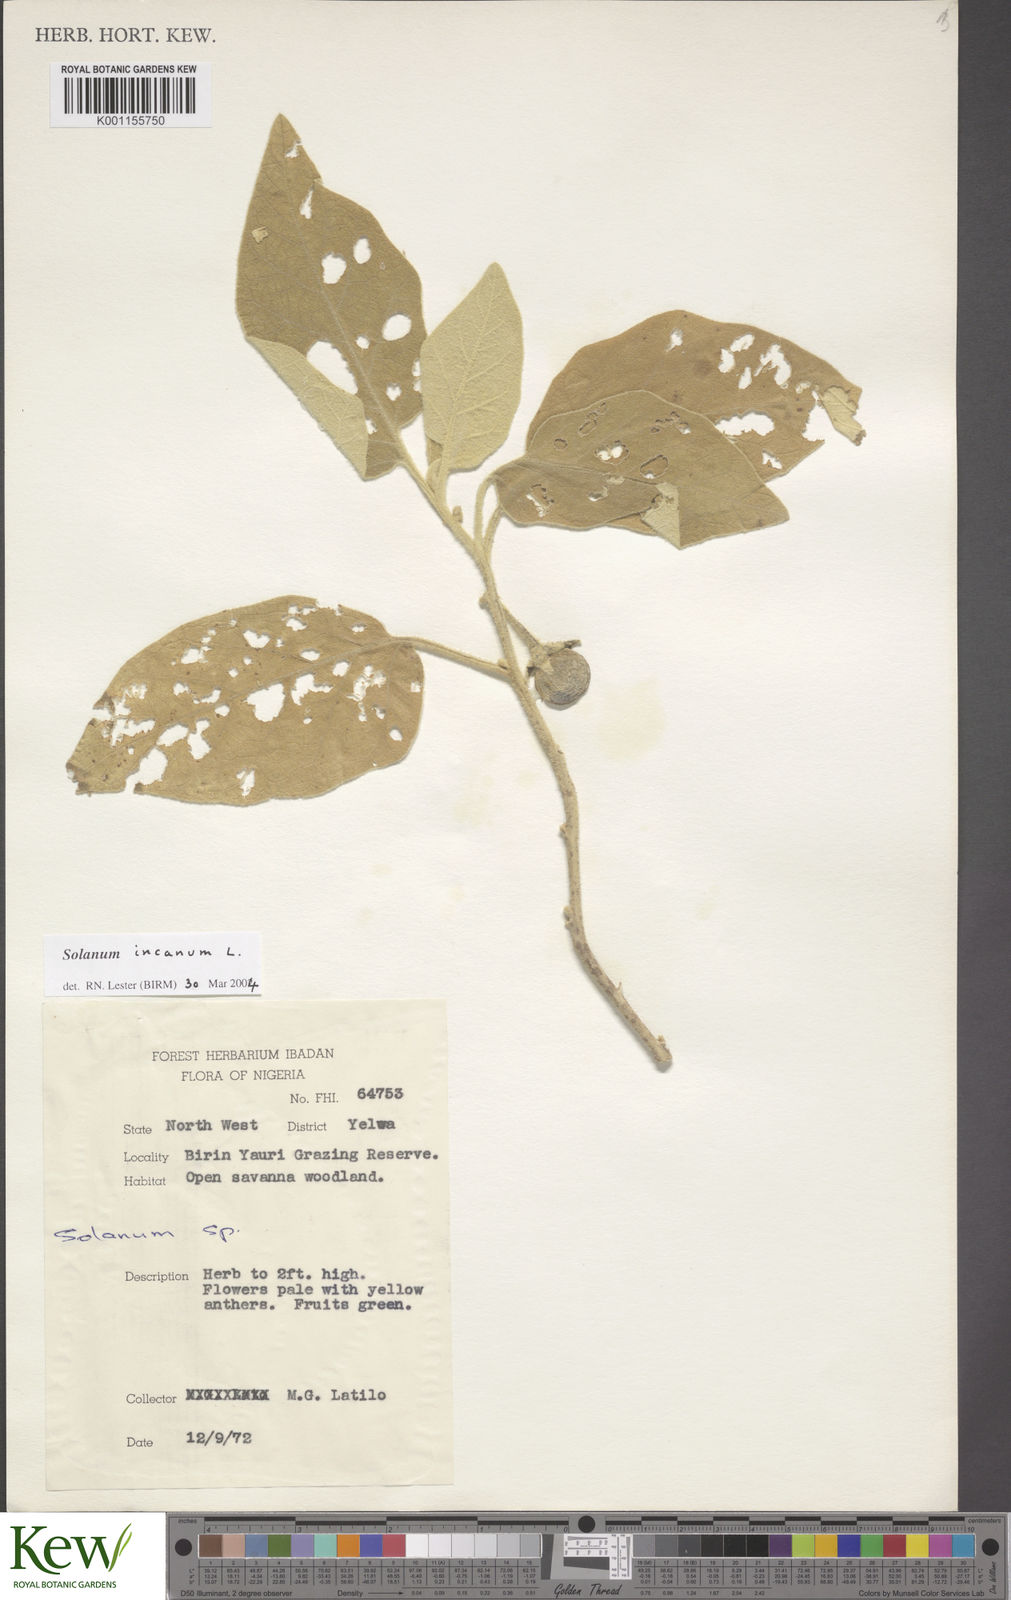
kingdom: Plantae
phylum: Tracheophyta
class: Magnoliopsida
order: Solanales
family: Solanaceae
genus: Solanum
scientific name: Solanum incanum
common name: Bitter apple
